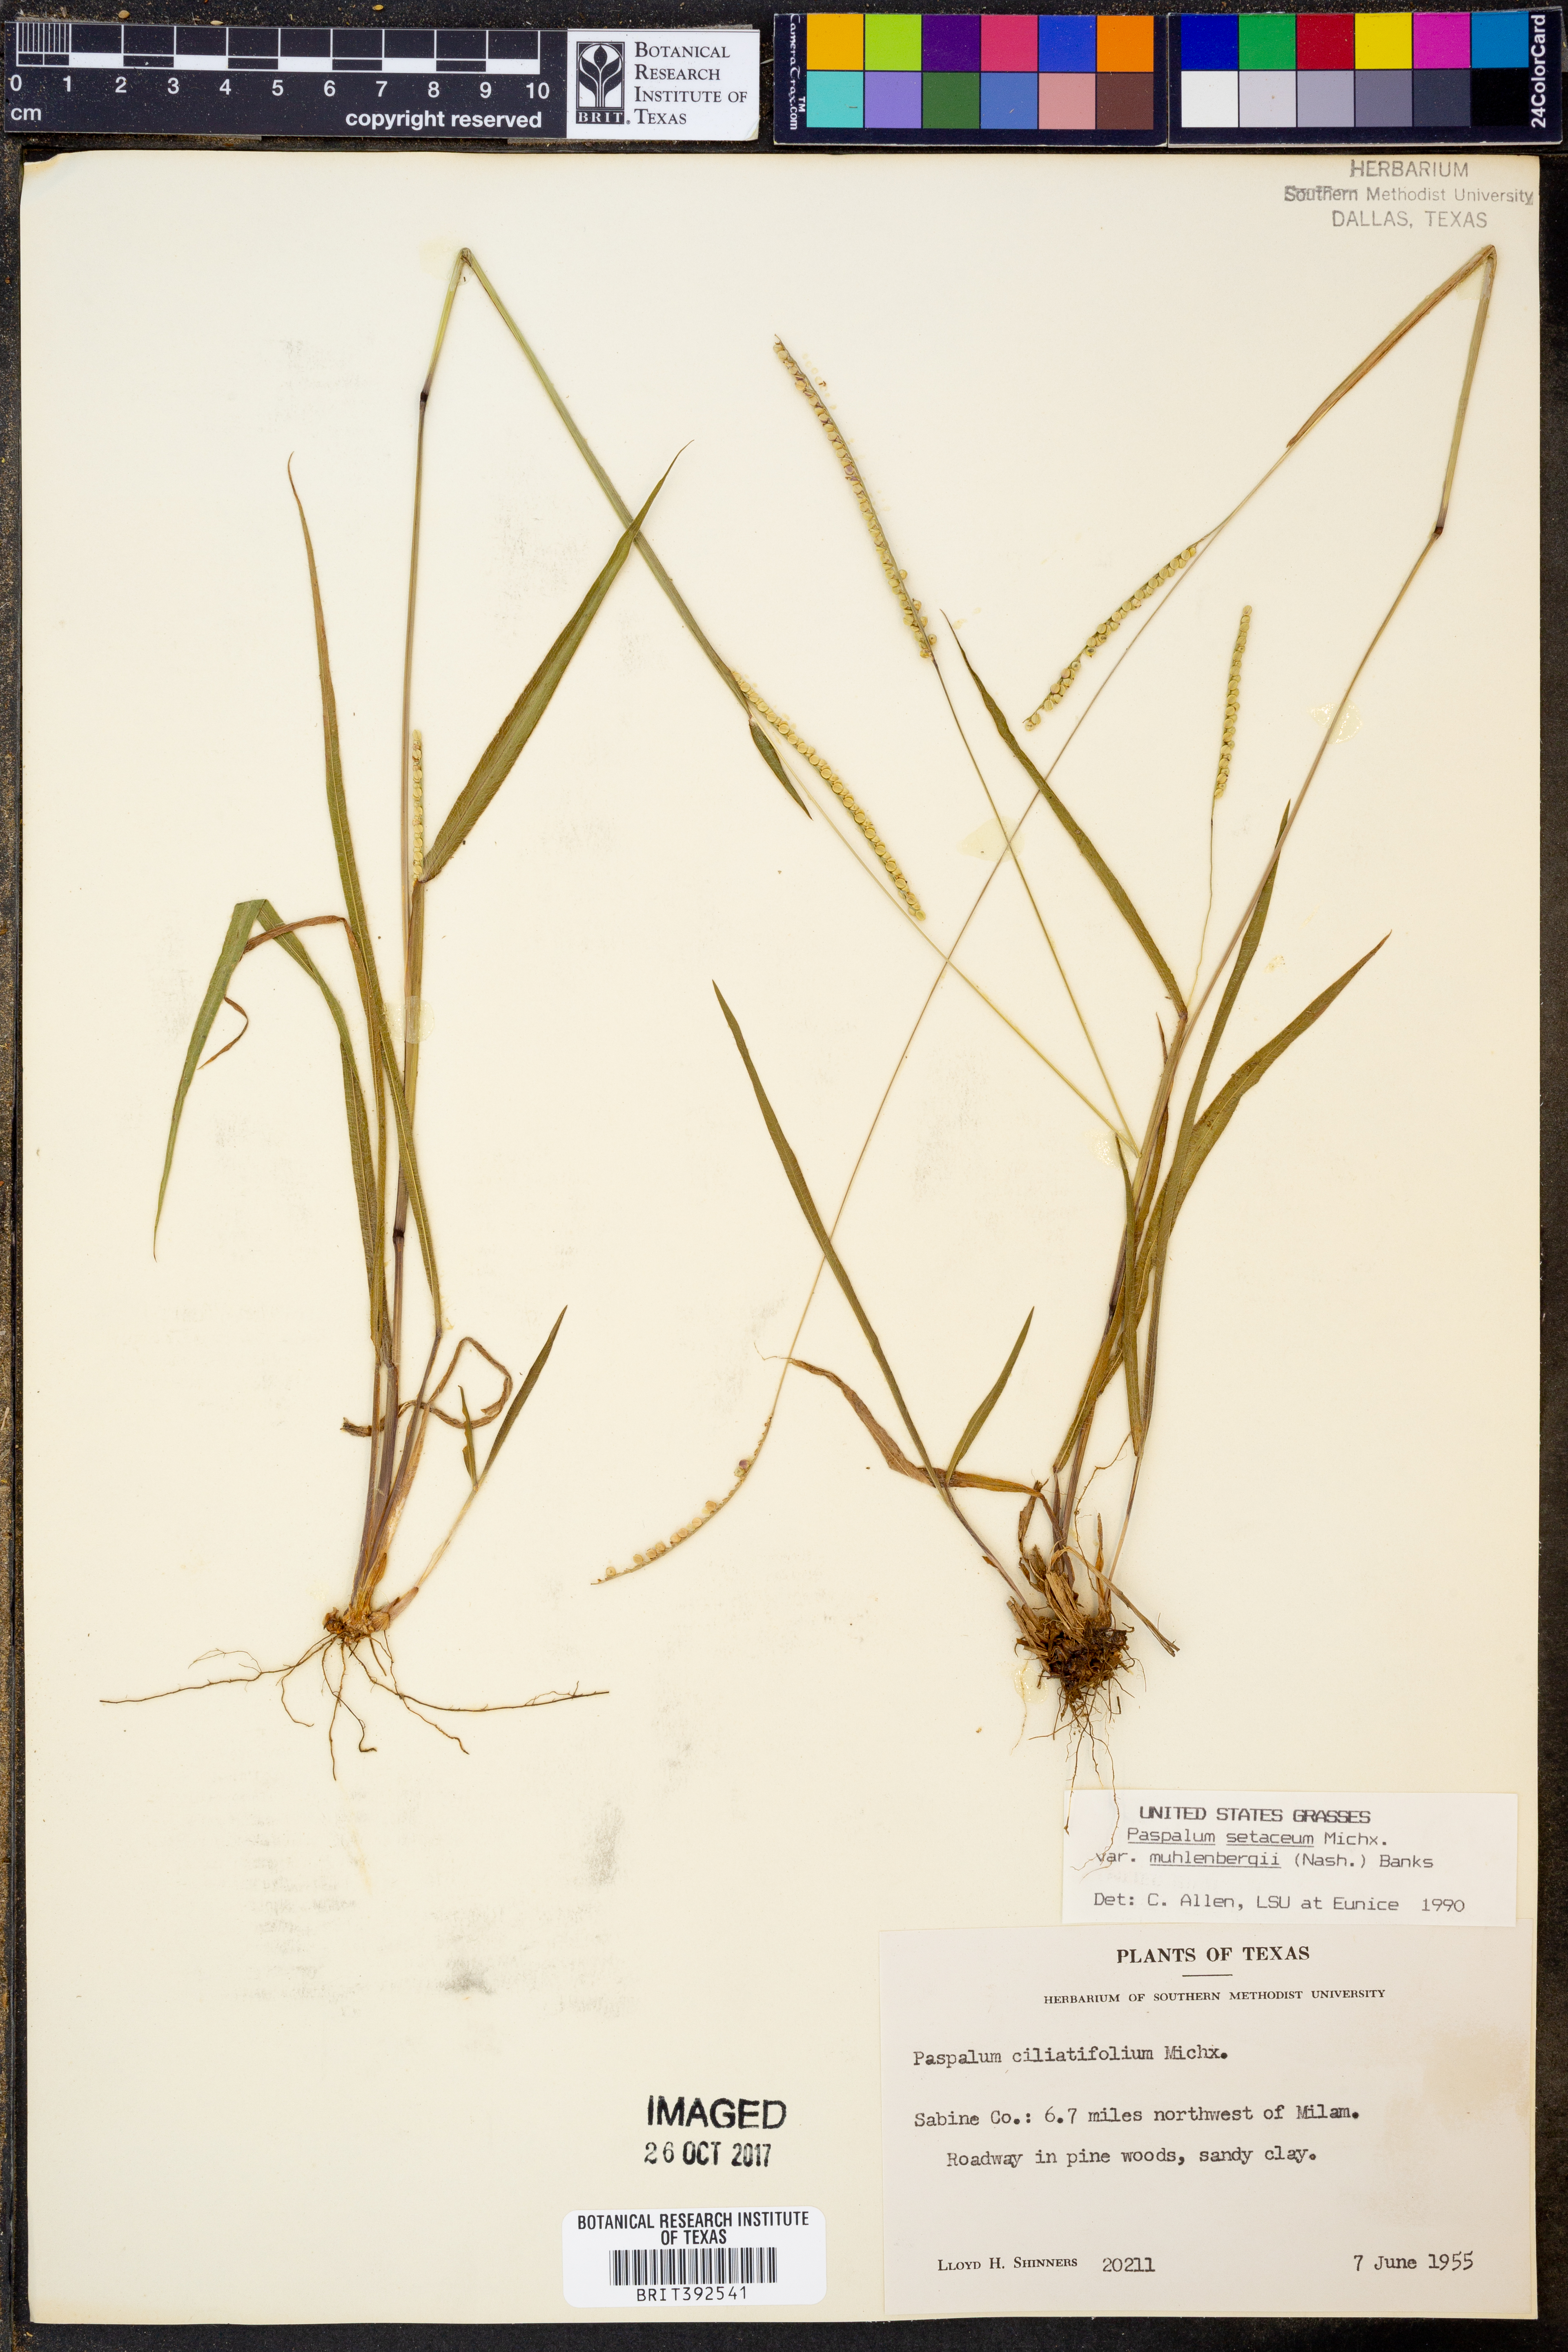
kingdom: Plantae
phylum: Tracheophyta
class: Liliopsida
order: Poales
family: Poaceae
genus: Paspalum
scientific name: Paspalum setaceum
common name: Slender paspalum
